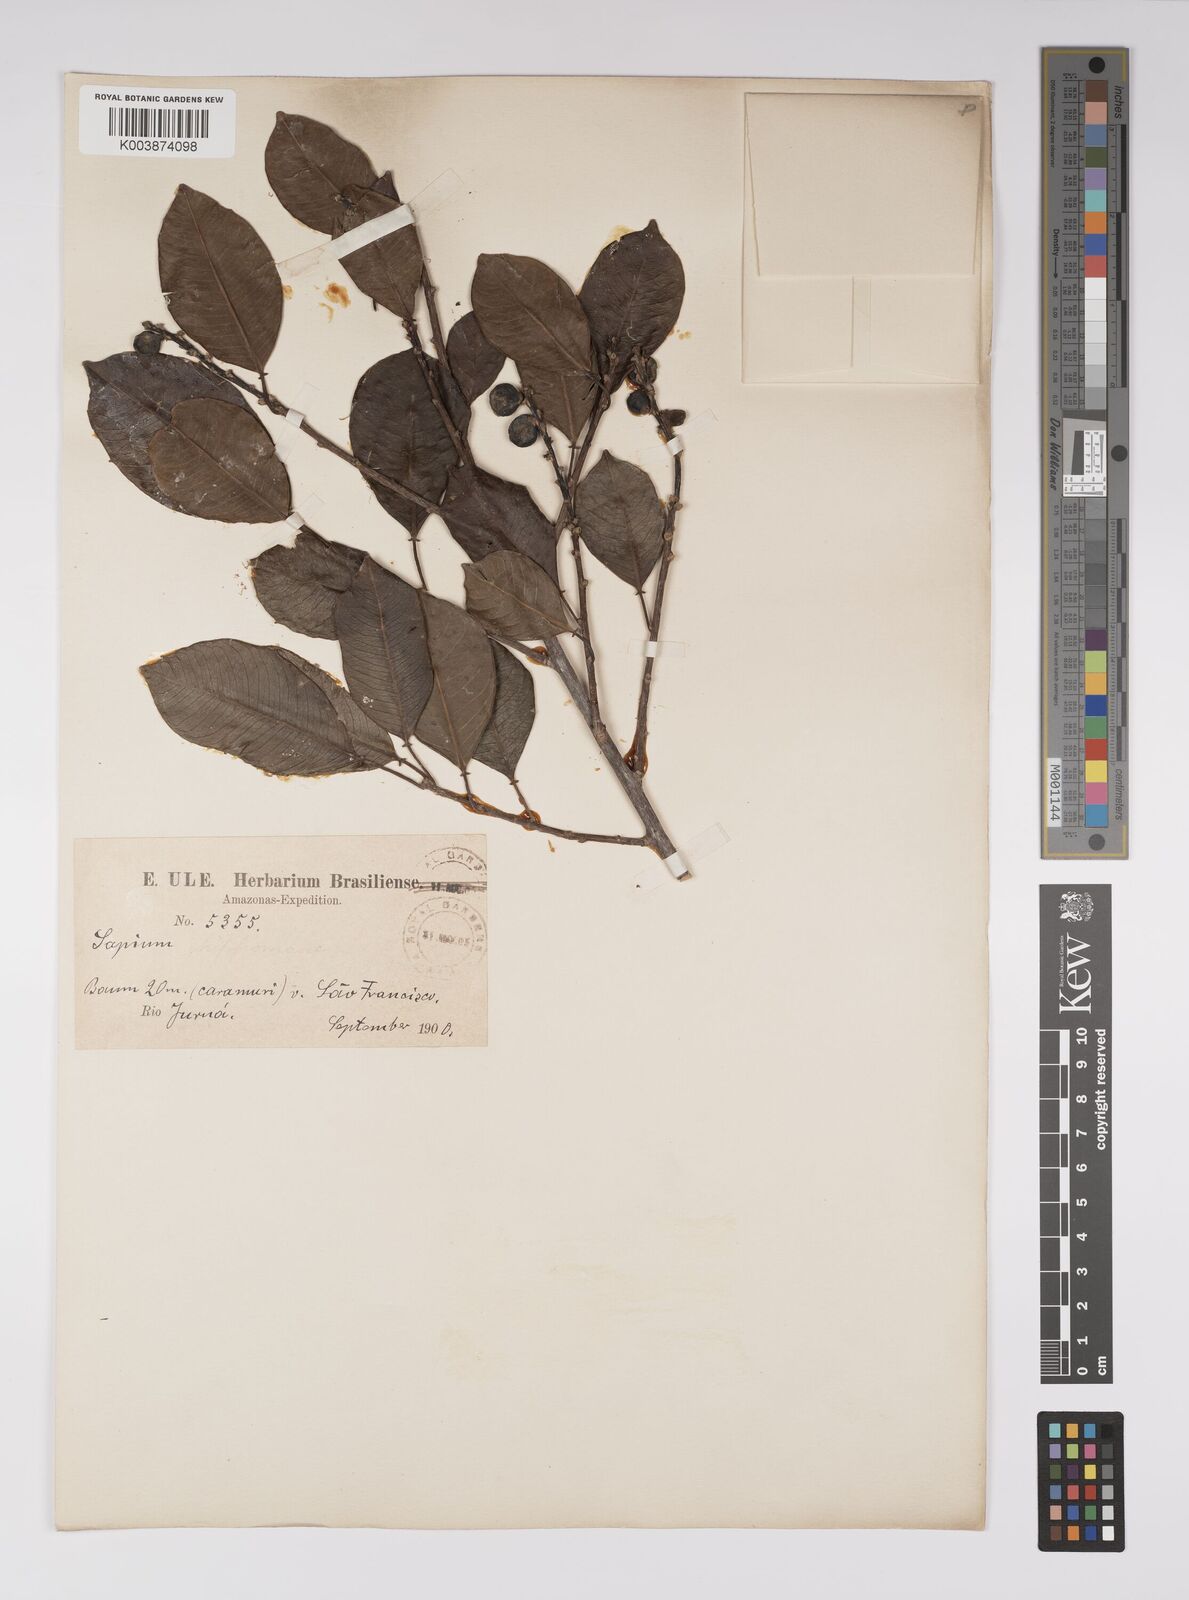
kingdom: Plantae
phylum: Tracheophyta
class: Magnoliopsida
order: Malpighiales
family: Euphorbiaceae
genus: Sapium
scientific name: Sapium glandulosum
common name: Milktree
